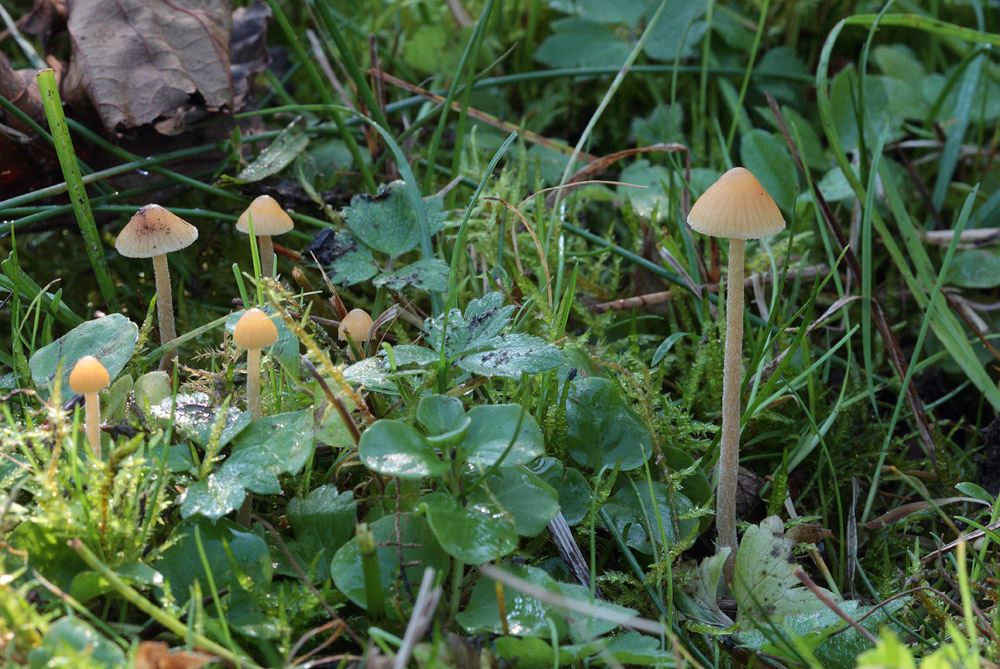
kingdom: Fungi
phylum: Basidiomycota
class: Agaricomycetes
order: Agaricales
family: Hymenogastraceae
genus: Galerina
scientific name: Galerina clavata
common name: kær-hjelmhat
